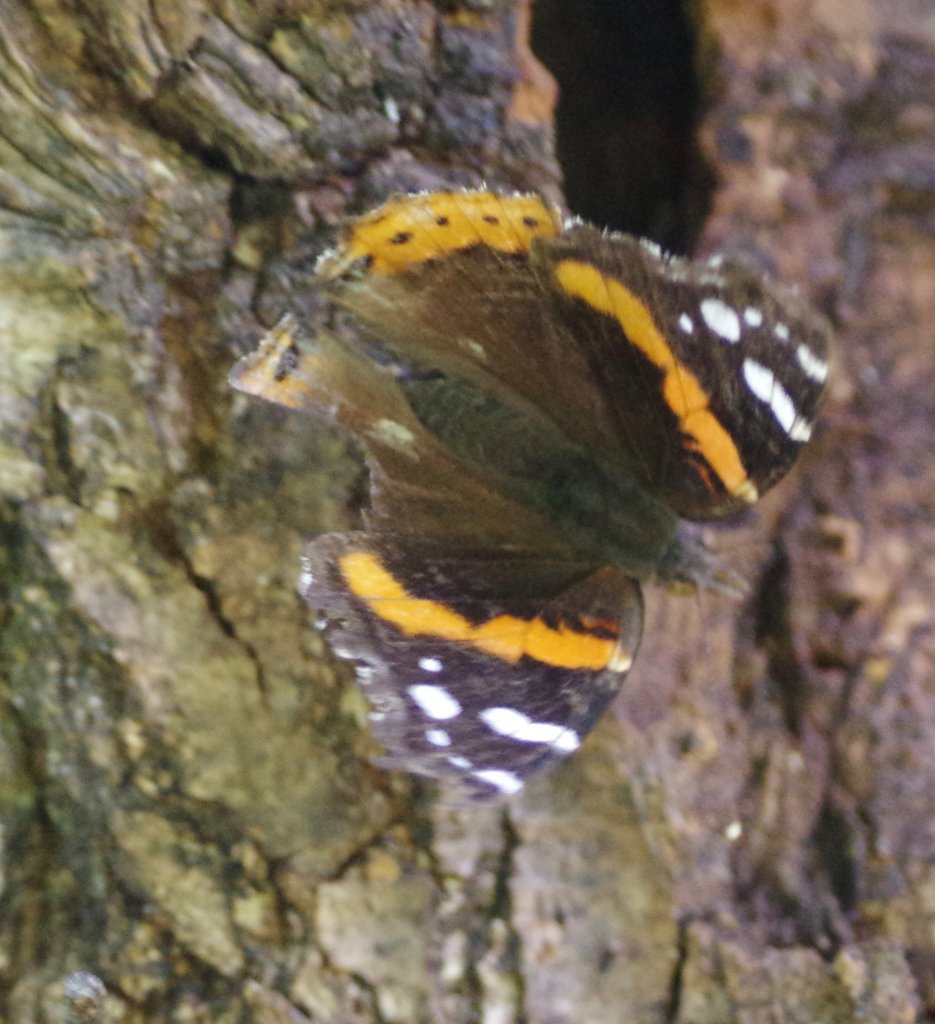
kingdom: Animalia
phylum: Arthropoda
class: Insecta
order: Lepidoptera
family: Nymphalidae
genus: Vanessa
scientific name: Vanessa atalanta
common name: Red Admiral
